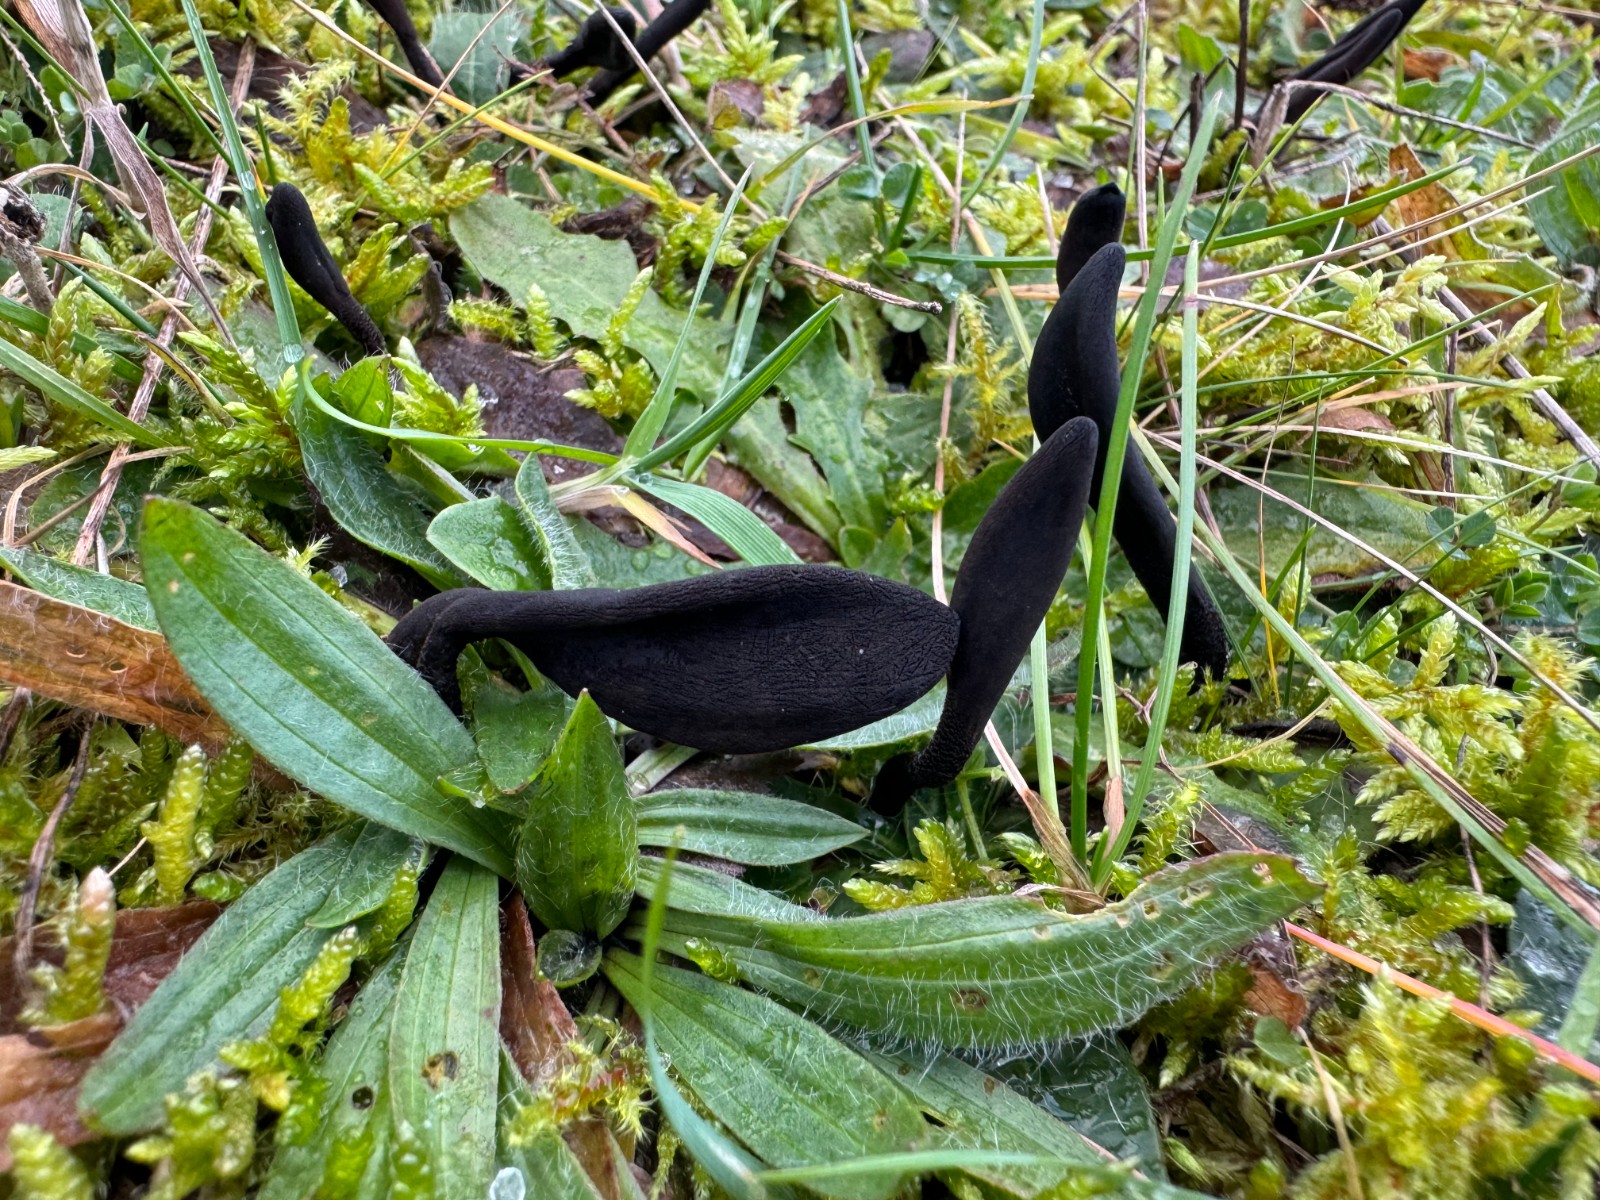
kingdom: Fungi
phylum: Ascomycota
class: Geoglossomycetes
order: Geoglossales
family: Geoglossaceae
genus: Hemileucoglossum
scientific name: Hemileucoglossum elongatum
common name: småsporet jordtunge
